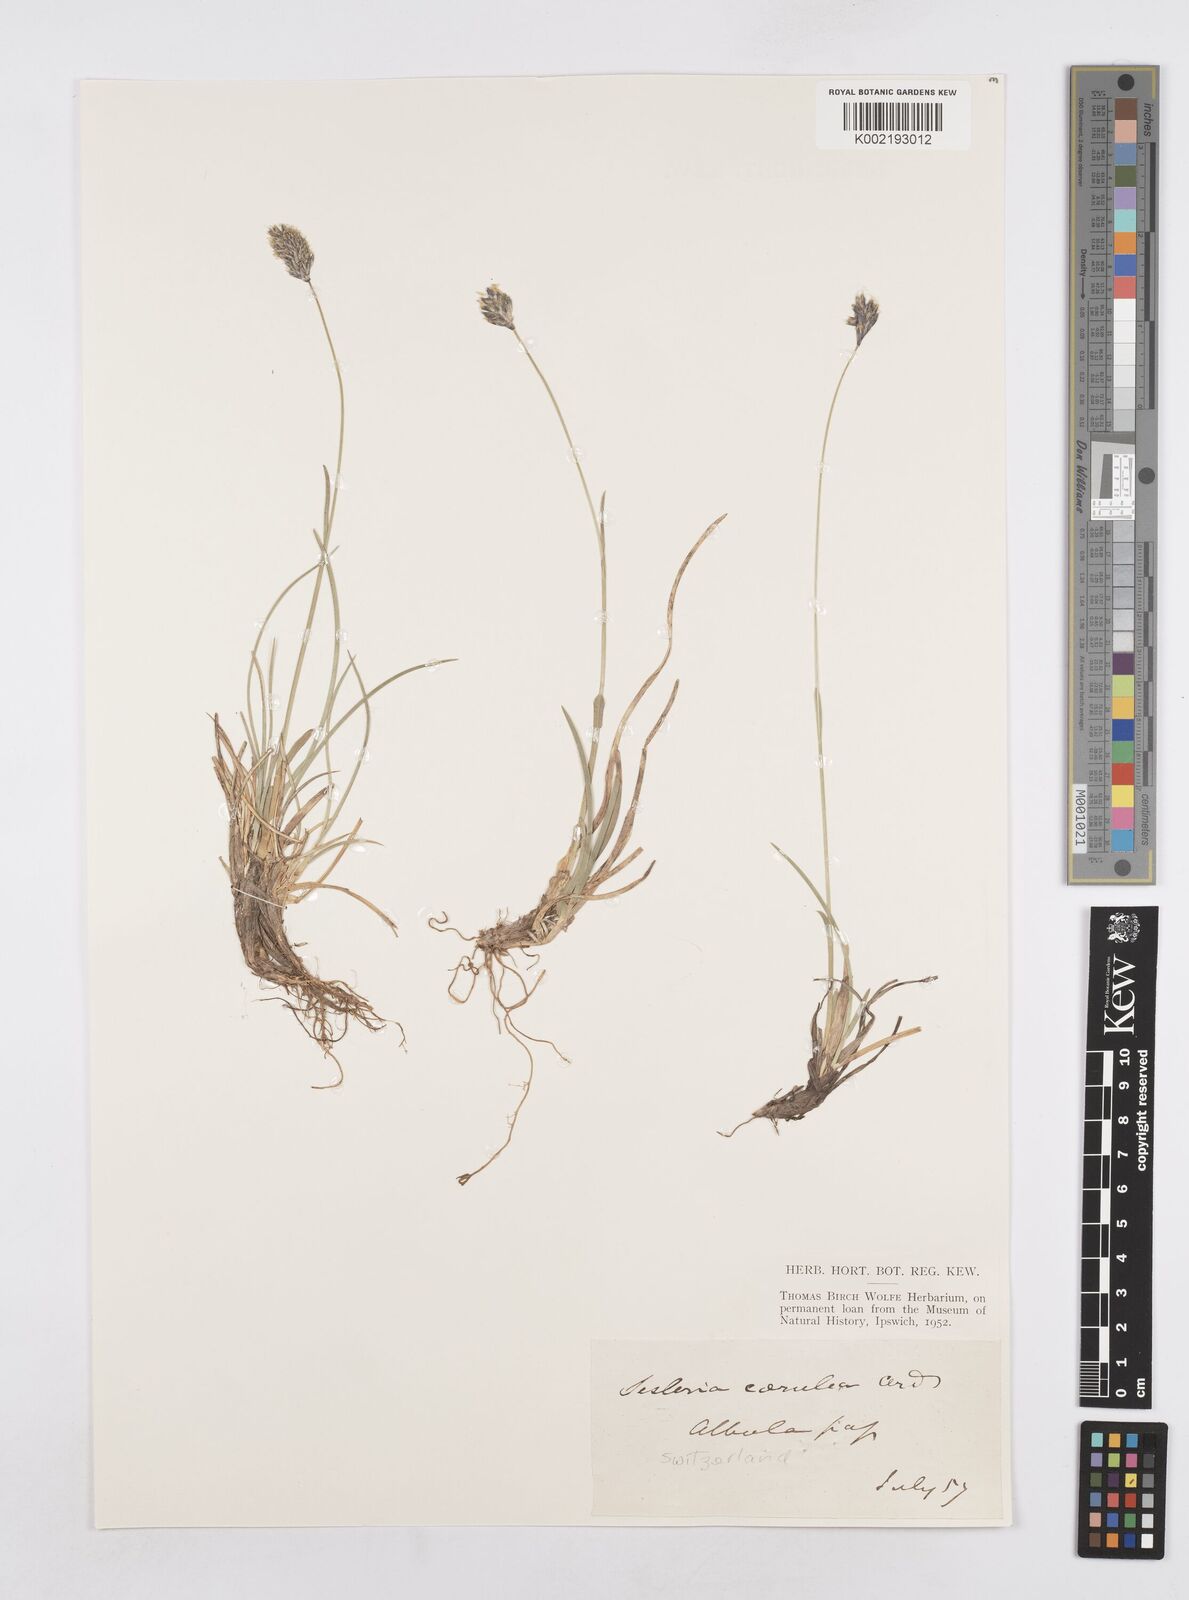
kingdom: Plantae
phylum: Tracheophyta
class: Liliopsida
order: Poales
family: Poaceae
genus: Sesleria
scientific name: Sesleria caerulea
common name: Blue moor-grass
